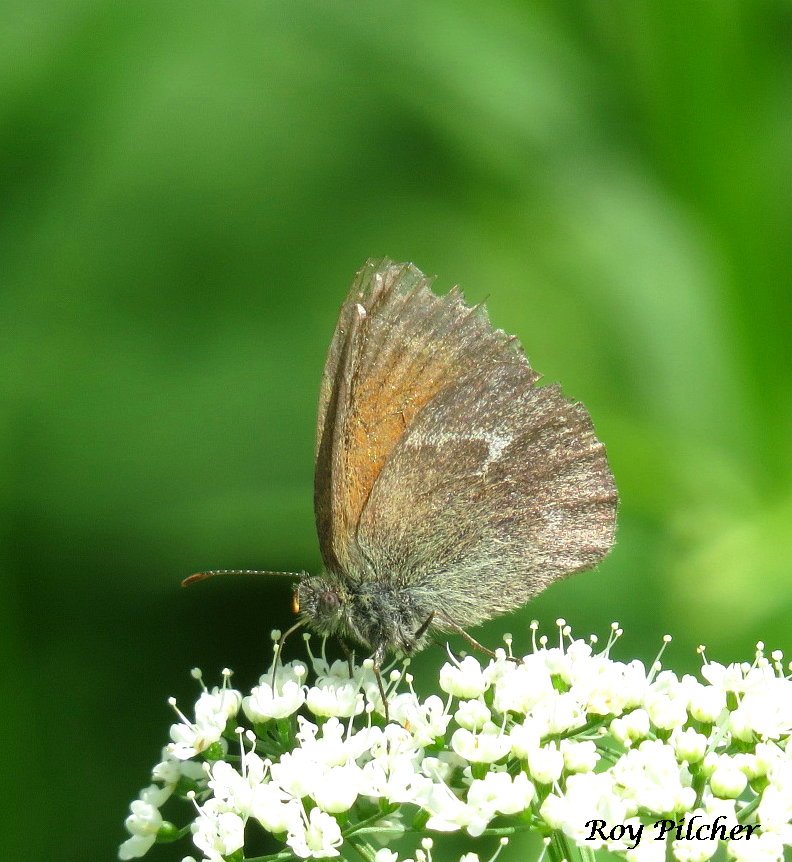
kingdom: Animalia
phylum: Arthropoda
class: Insecta
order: Lepidoptera
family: Nymphalidae
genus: Coenonympha
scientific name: Coenonympha tullia
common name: Large Heath
